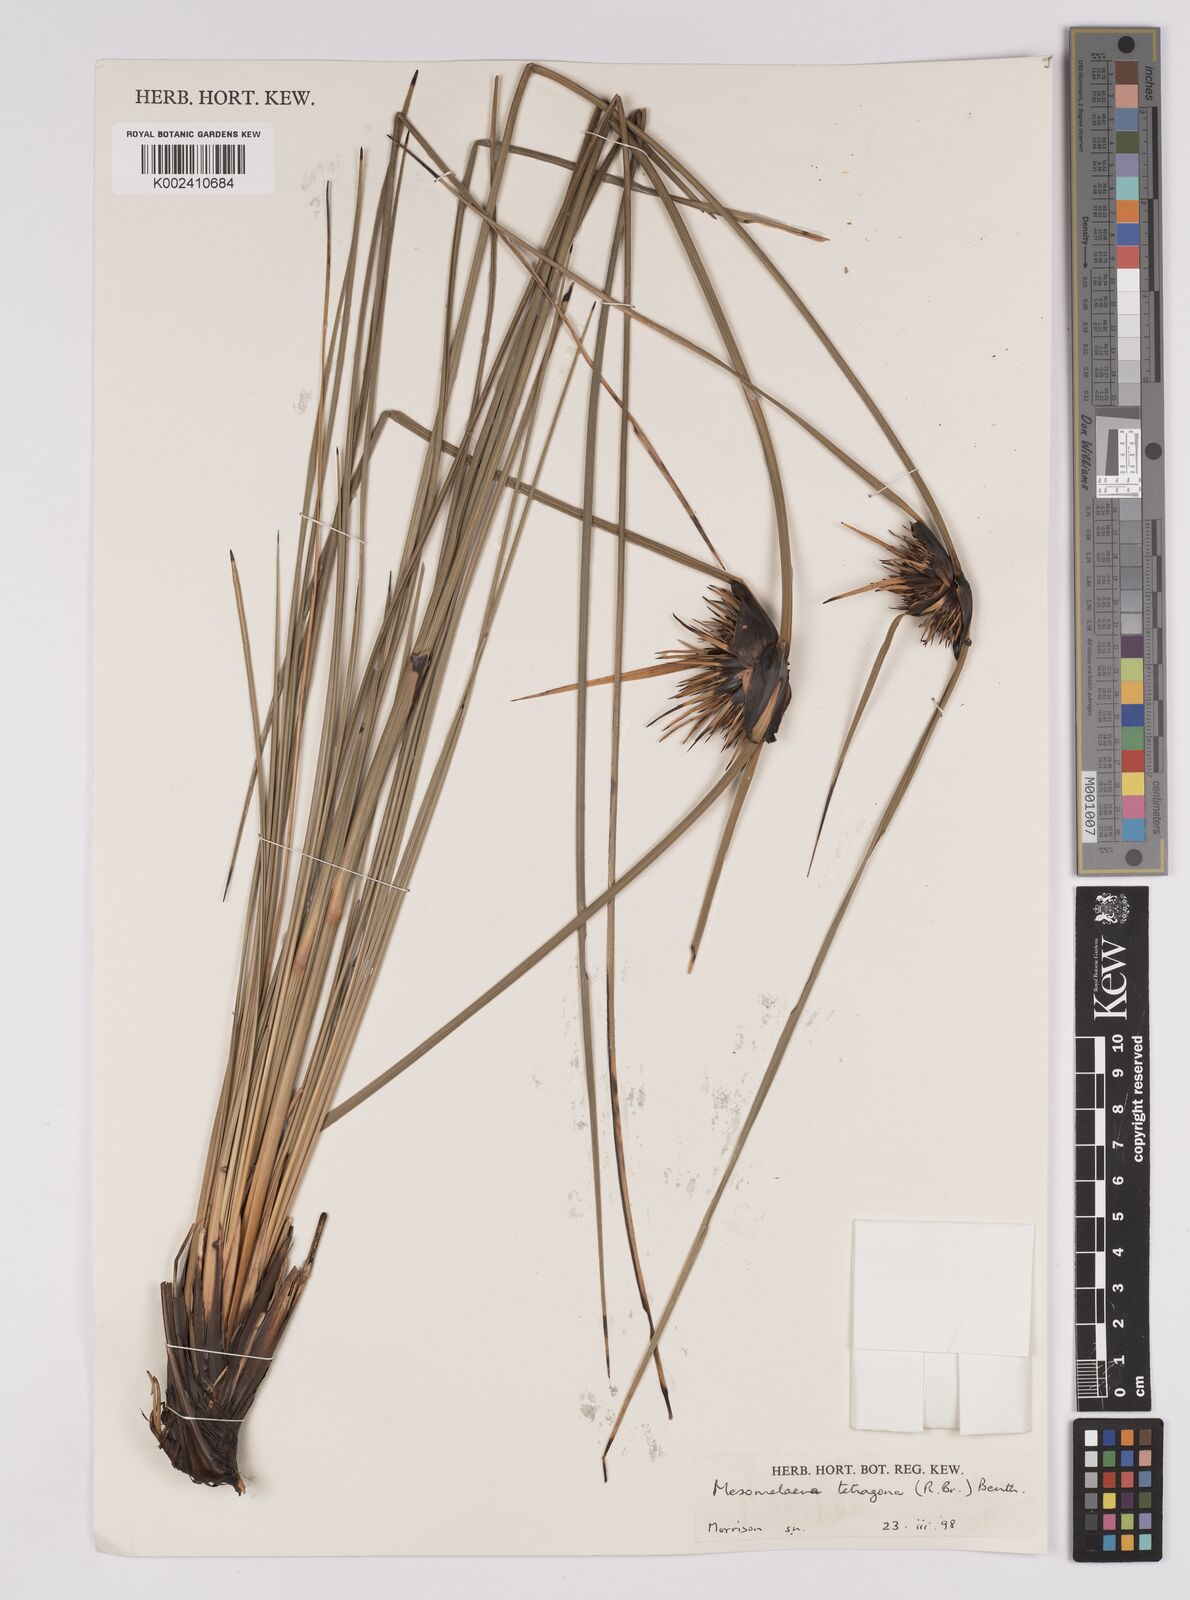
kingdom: Plantae
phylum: Tracheophyta
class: Liliopsida
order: Poales
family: Cyperaceae
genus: Mesomelaena
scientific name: Mesomelaena tetragona
